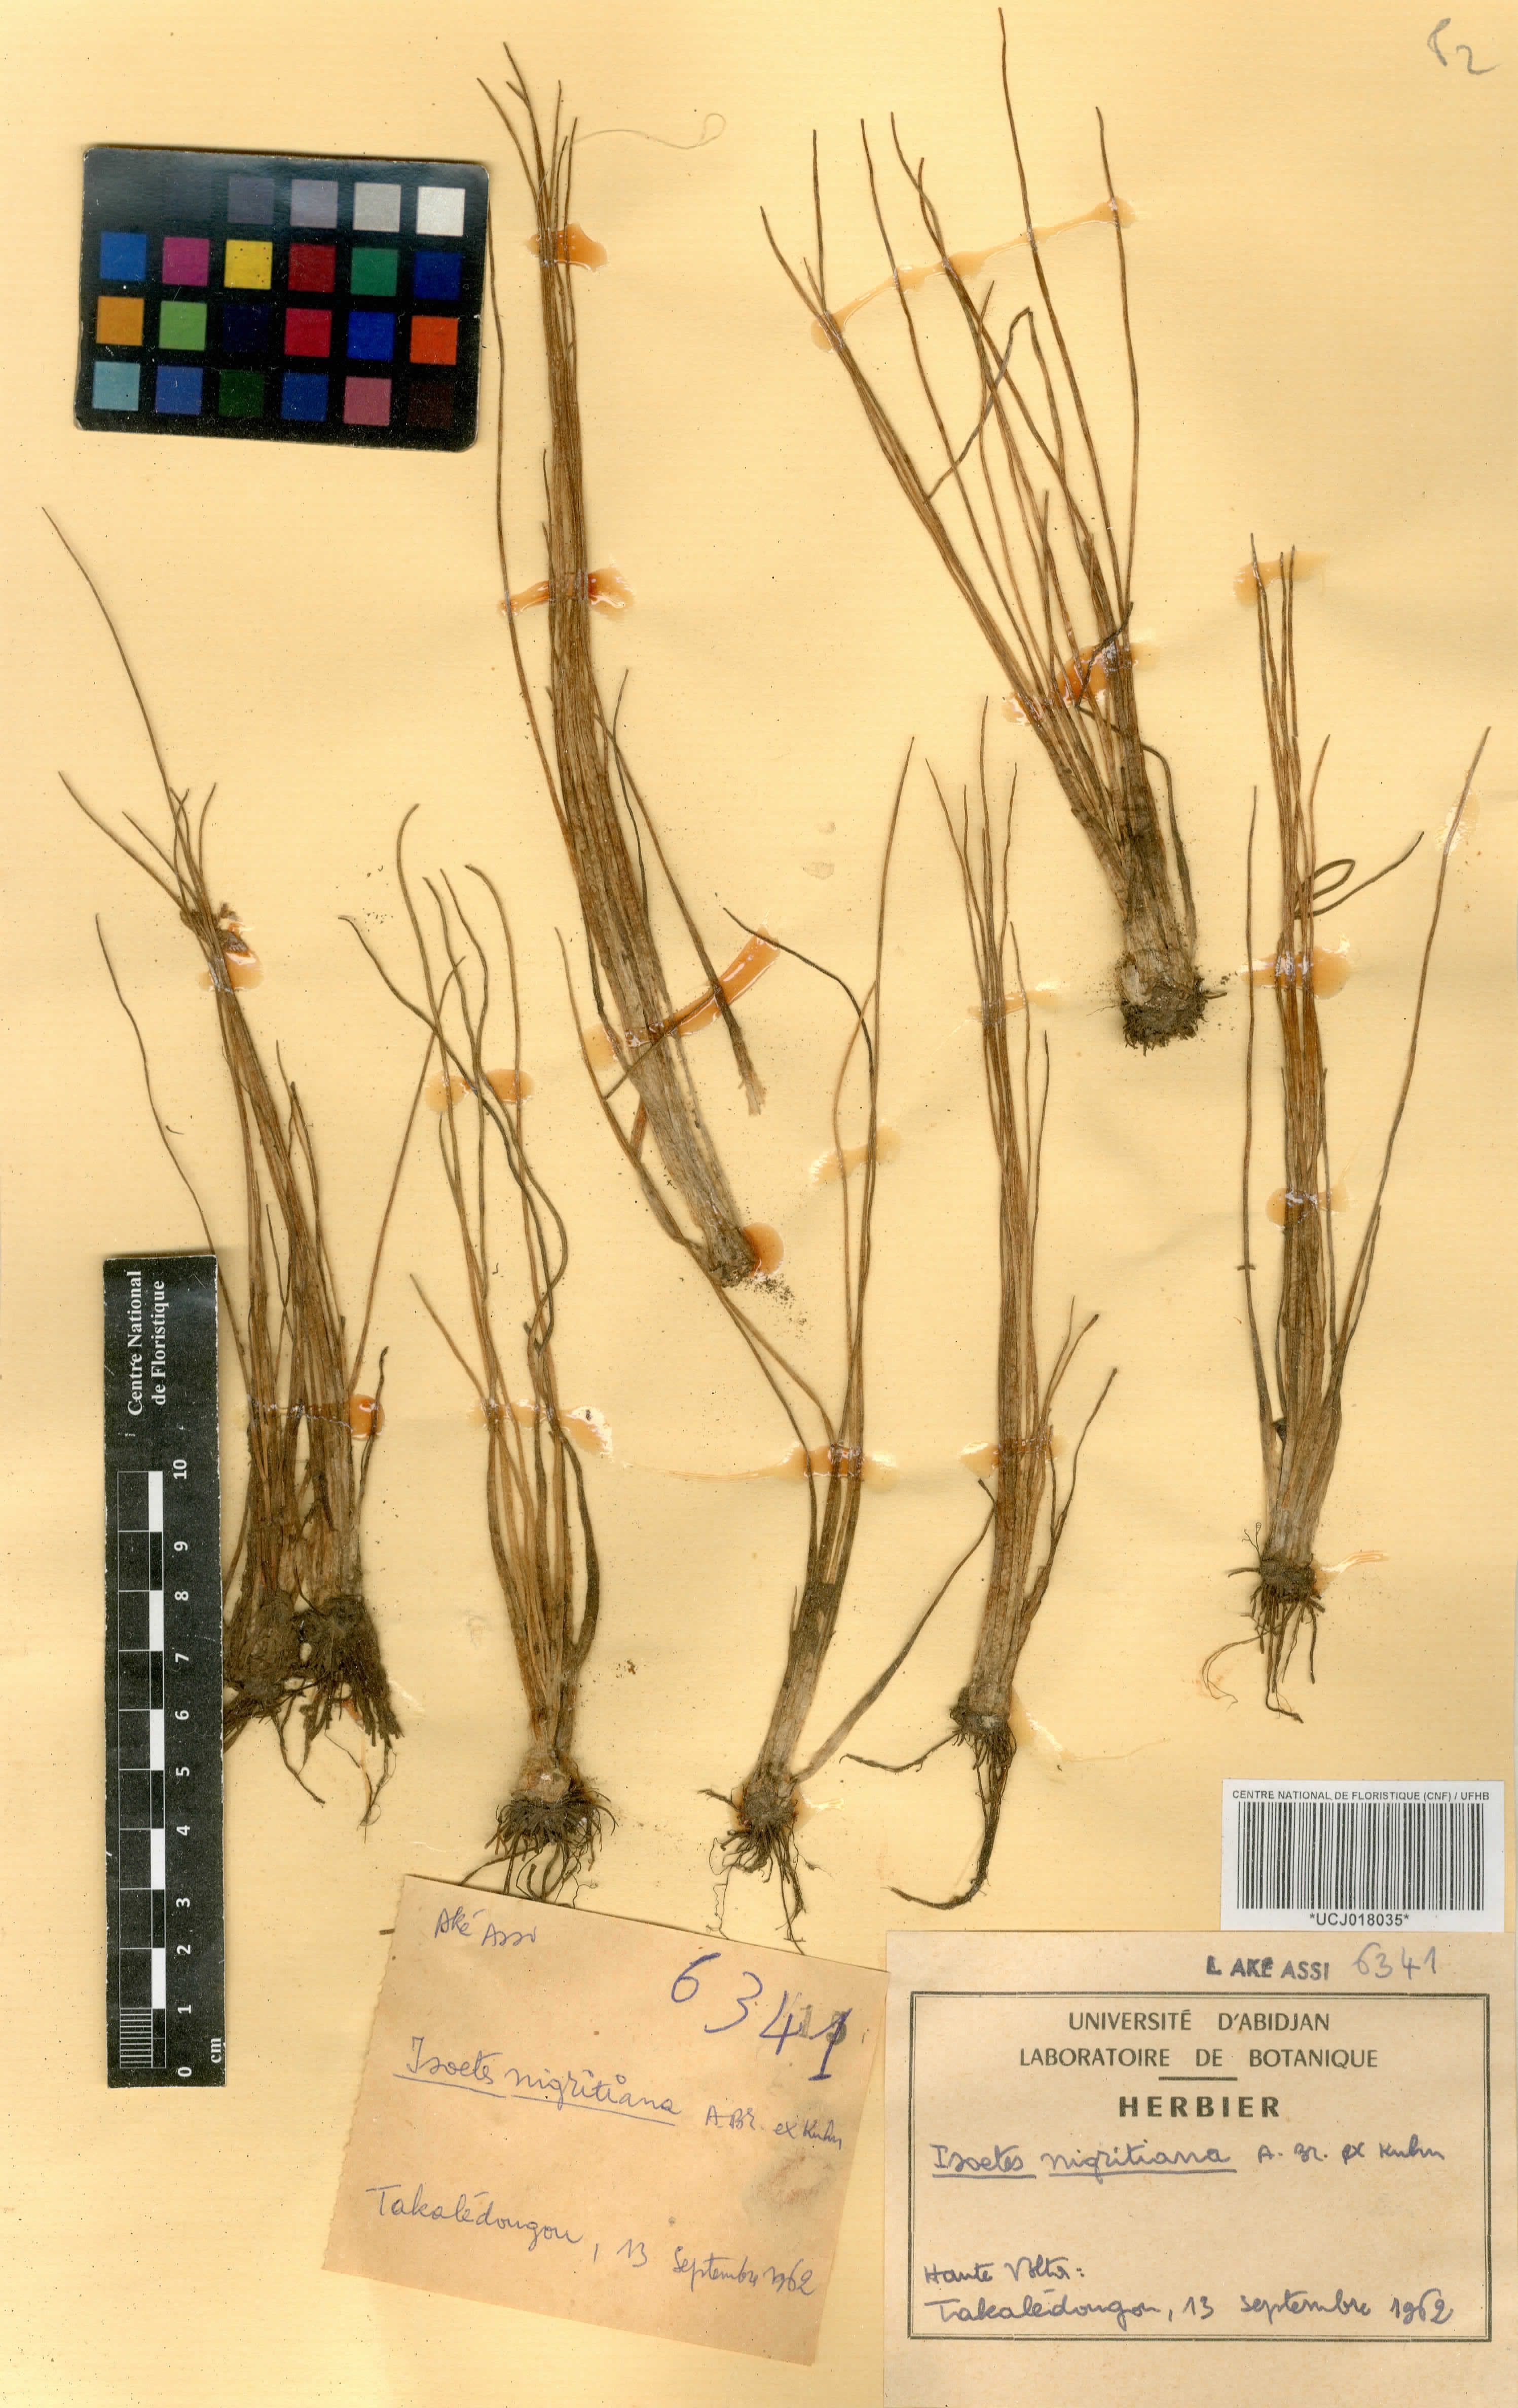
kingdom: Plantae
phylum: Tracheophyta
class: Lycopodiopsida
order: Isoetales
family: Isoetaceae
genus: Isoetes
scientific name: Isoetes nigritiana
